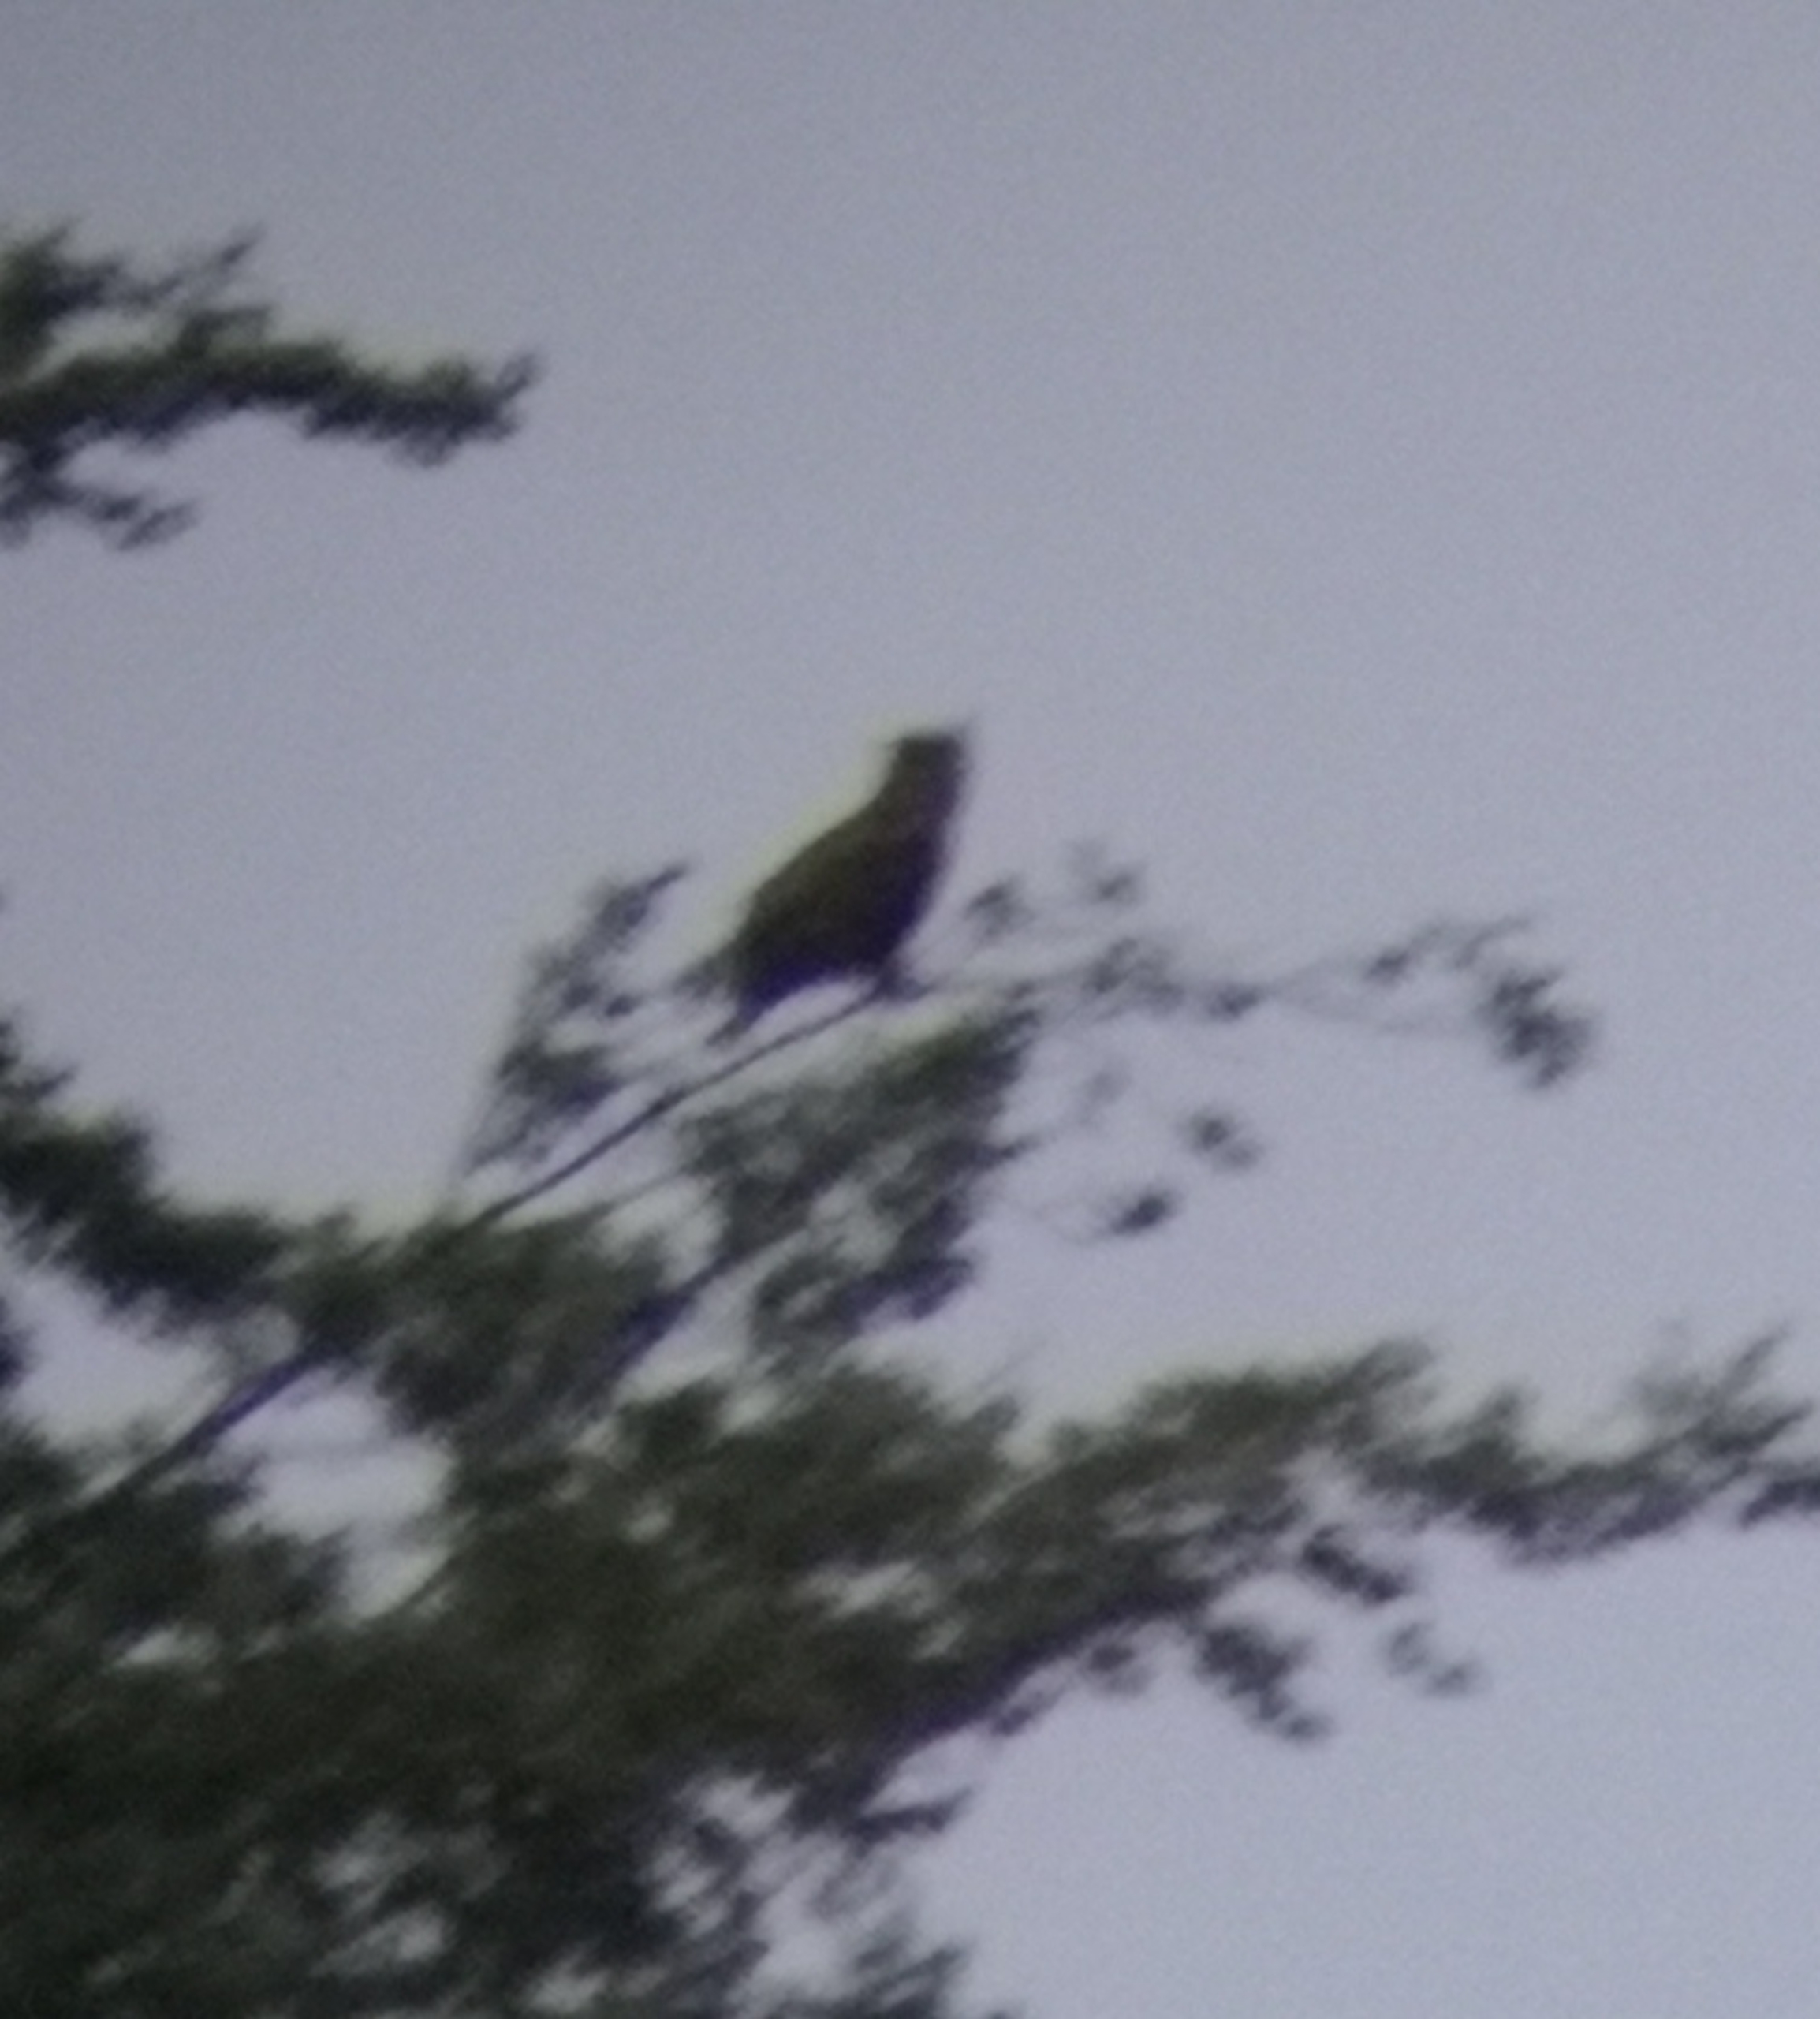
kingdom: Animalia
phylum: Chordata
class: Aves
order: Strigiformes
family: Strigidae
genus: Bubo
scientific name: Bubo bubo
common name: Stor hornugle
